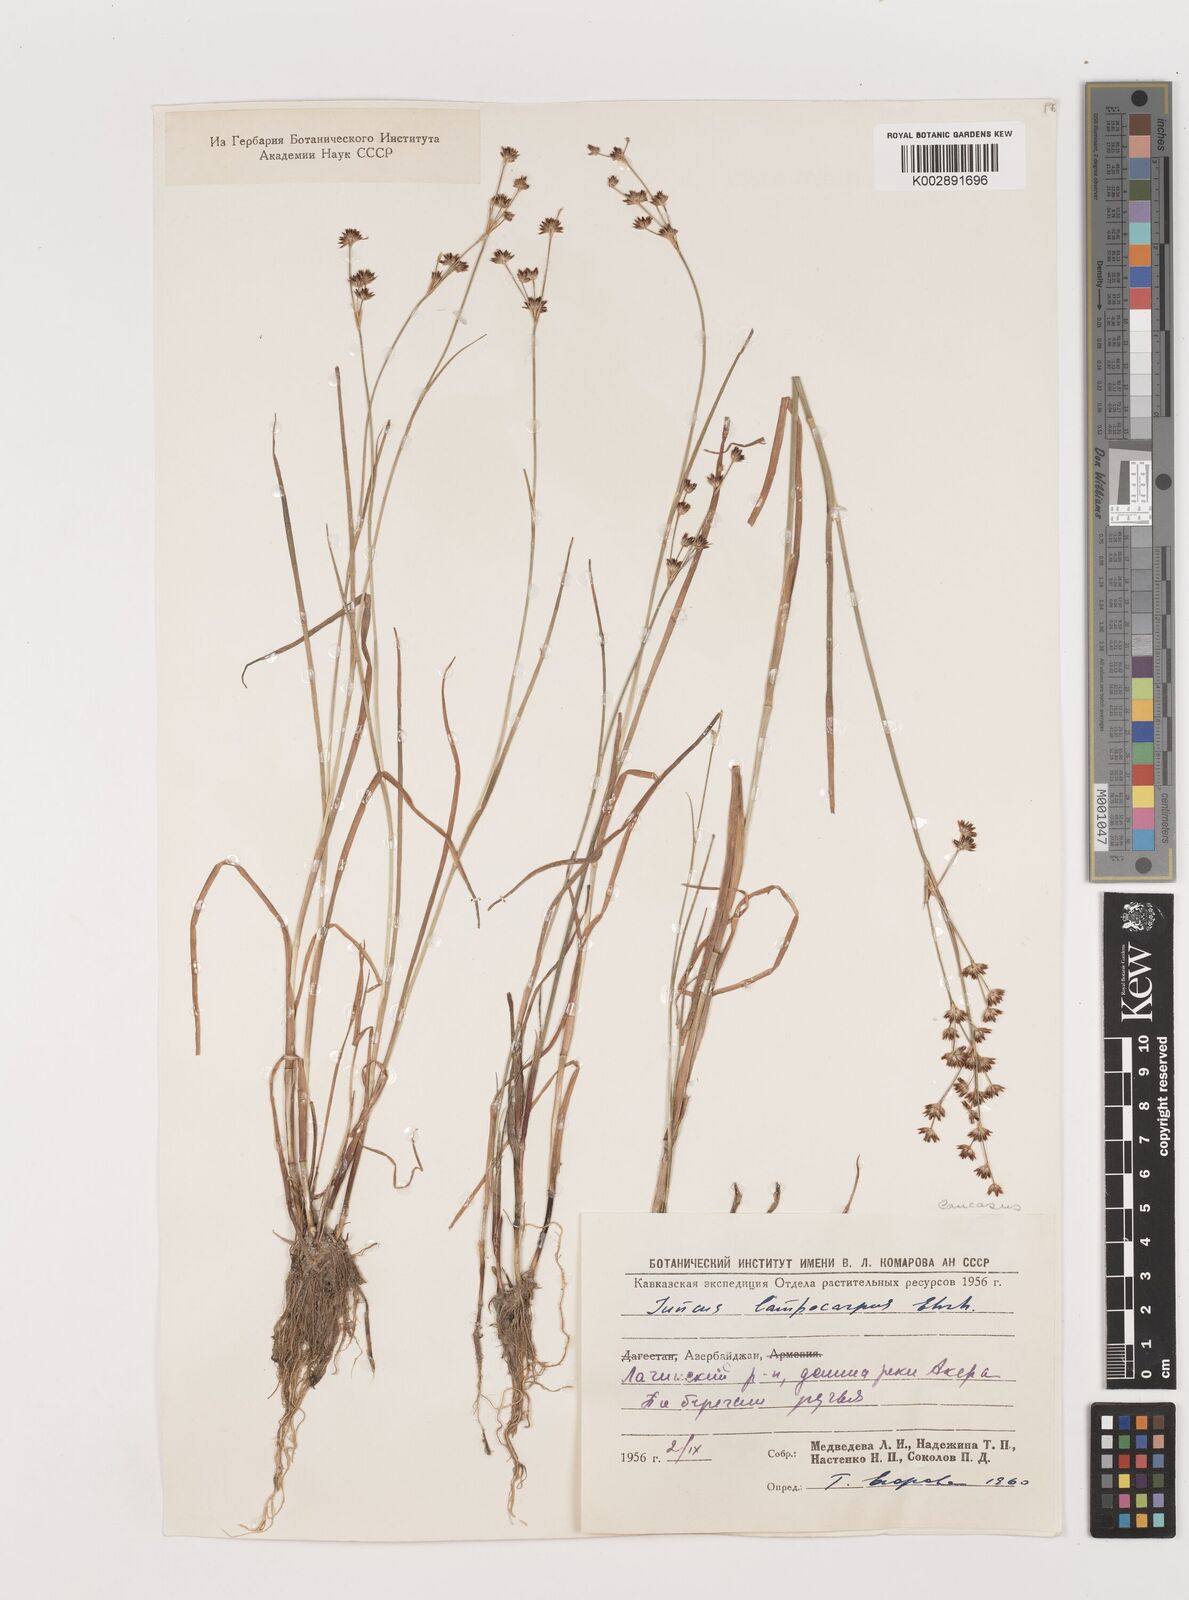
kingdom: Plantae
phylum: Tracheophyta
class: Liliopsida
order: Poales
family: Juncaceae
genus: Juncus
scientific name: Juncus astreptus
